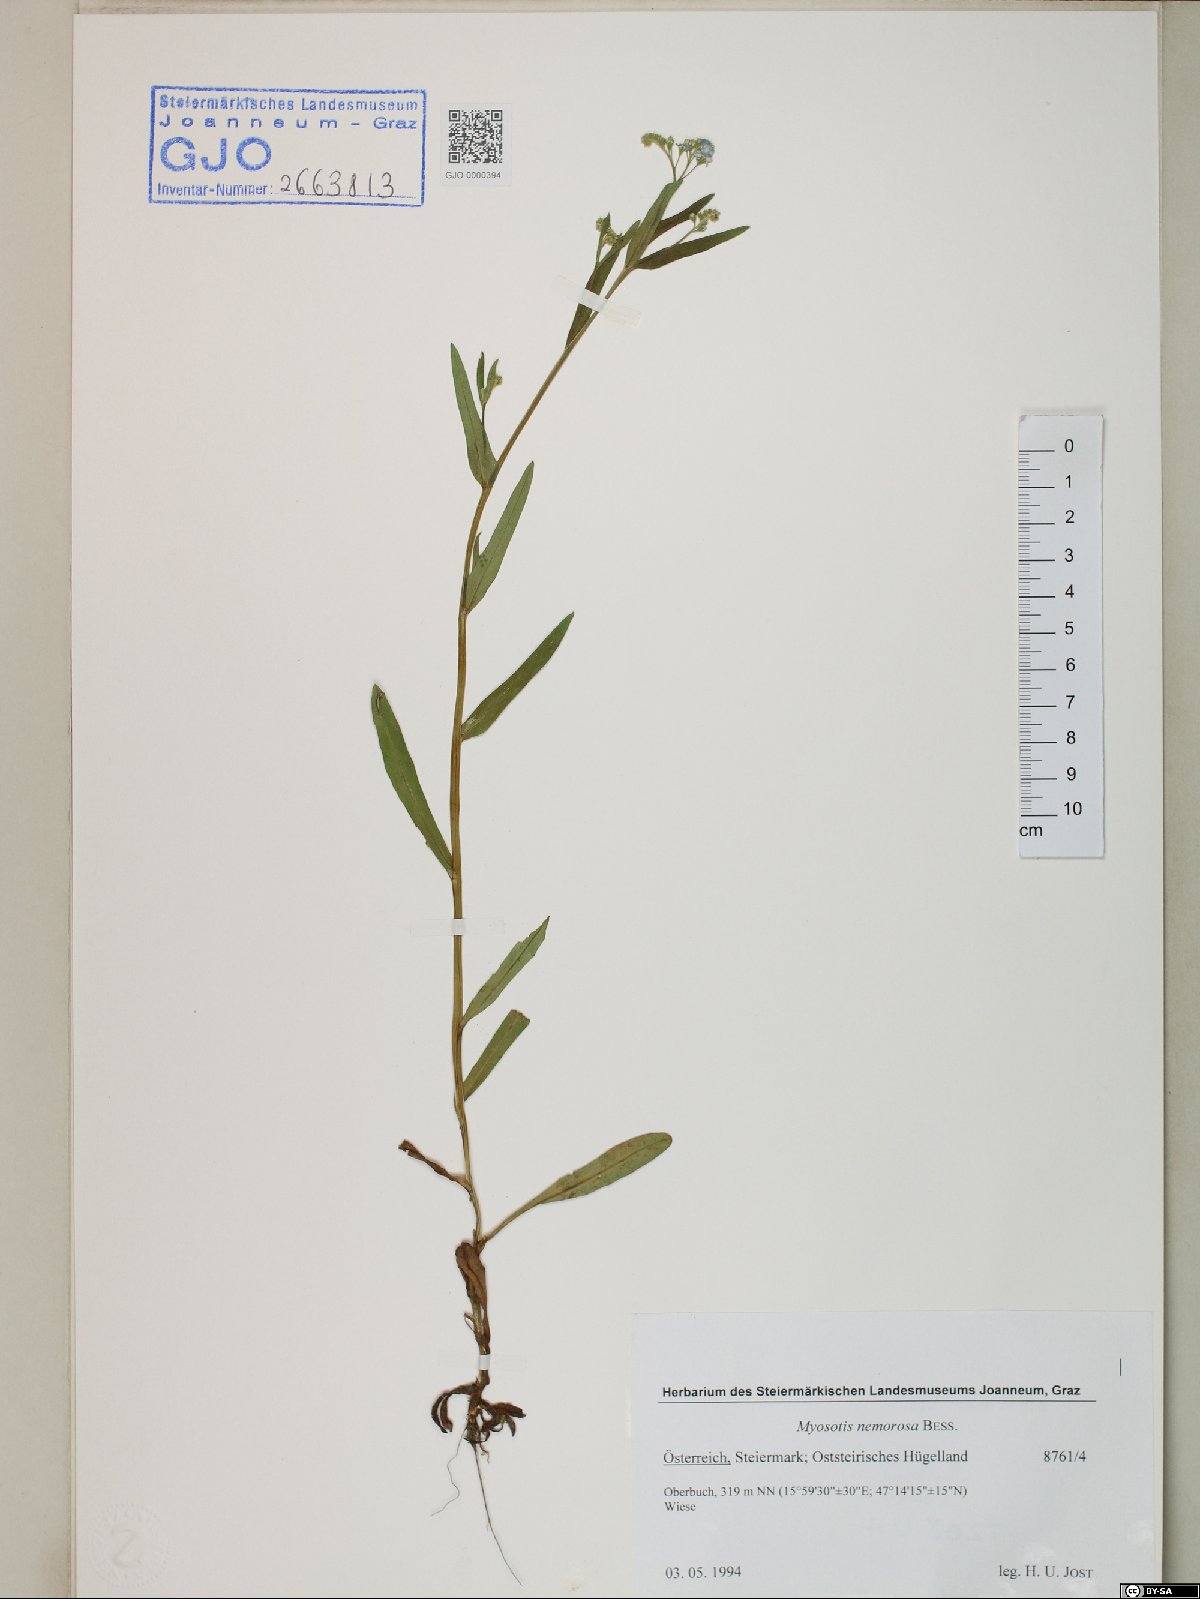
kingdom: Plantae
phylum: Tracheophyta
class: Magnoliopsida
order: Boraginales
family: Boraginaceae
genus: Myosotis
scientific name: Myosotis nemorosa
